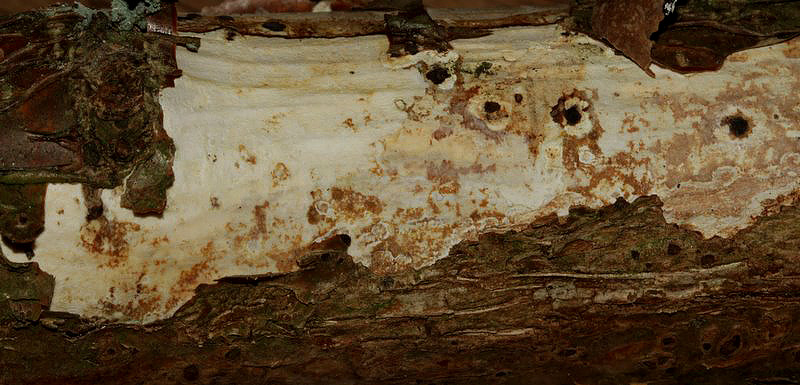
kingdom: Fungi
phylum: Basidiomycota
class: Agaricomycetes
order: Corticiales
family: Vuilleminiaceae
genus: Vuilleminia
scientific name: Vuilleminia coryli
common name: hassel-barksprænger
